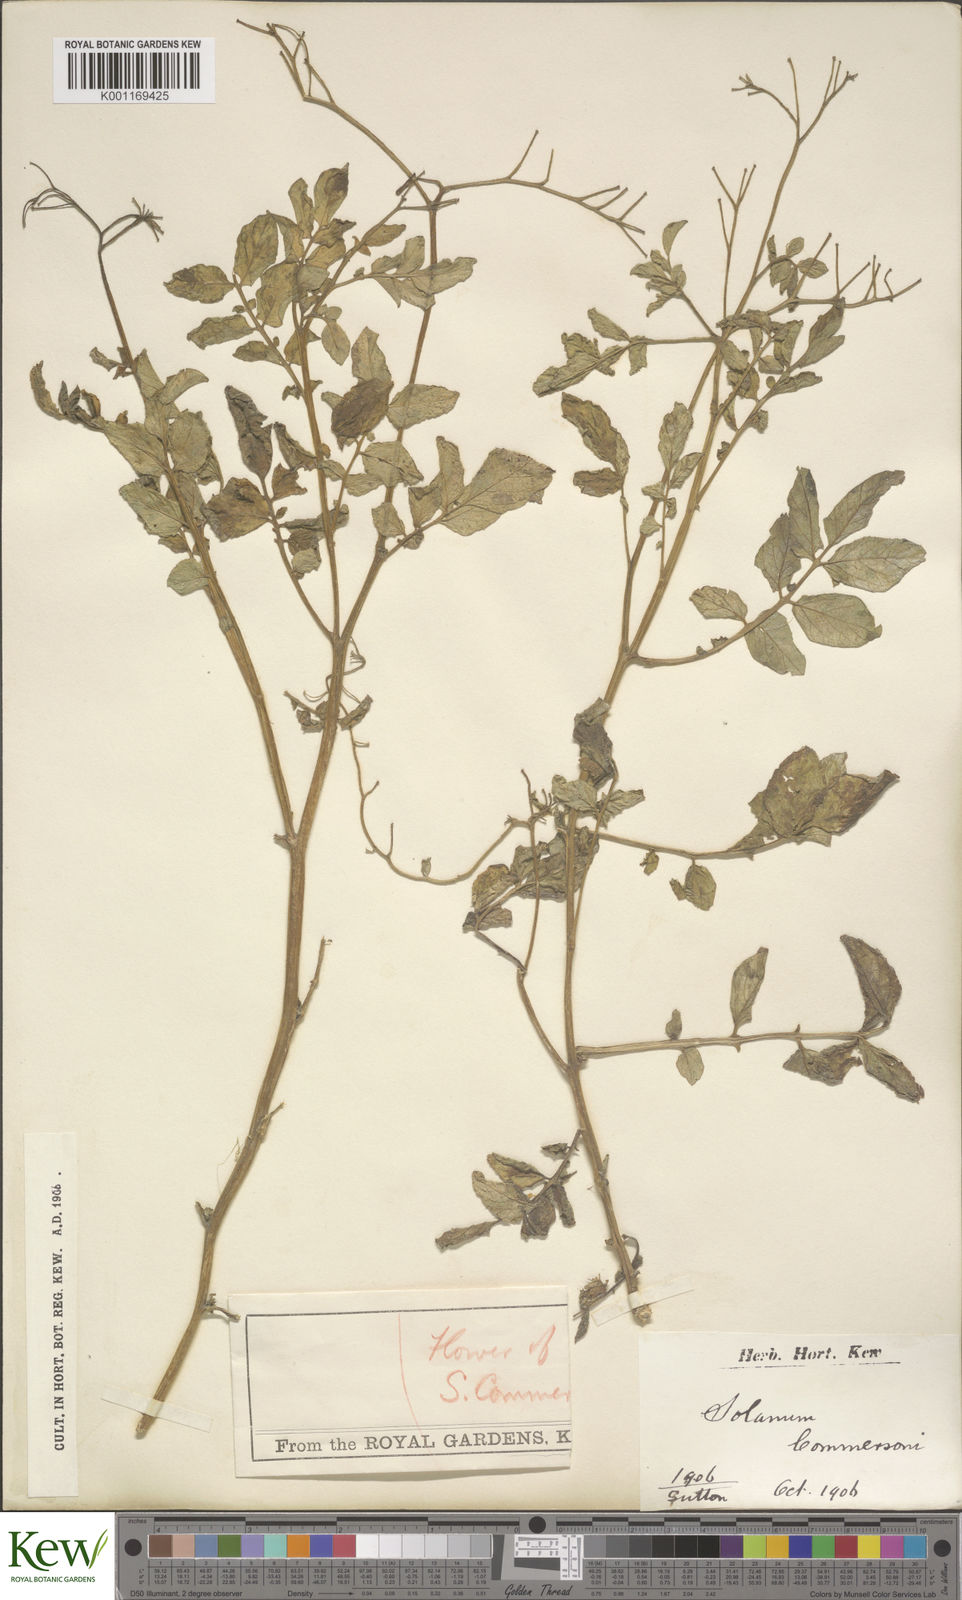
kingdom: Plantae
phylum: Tracheophyta
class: Magnoliopsida
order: Solanales
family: Solanaceae
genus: Solanum
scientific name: Solanum commersonii
